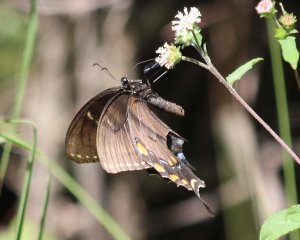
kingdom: Animalia
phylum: Arthropoda
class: Insecta
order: Lepidoptera
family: Papilionidae
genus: Pterourus
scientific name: Pterourus glaucus
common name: Eastern Tiger Swallowtail
